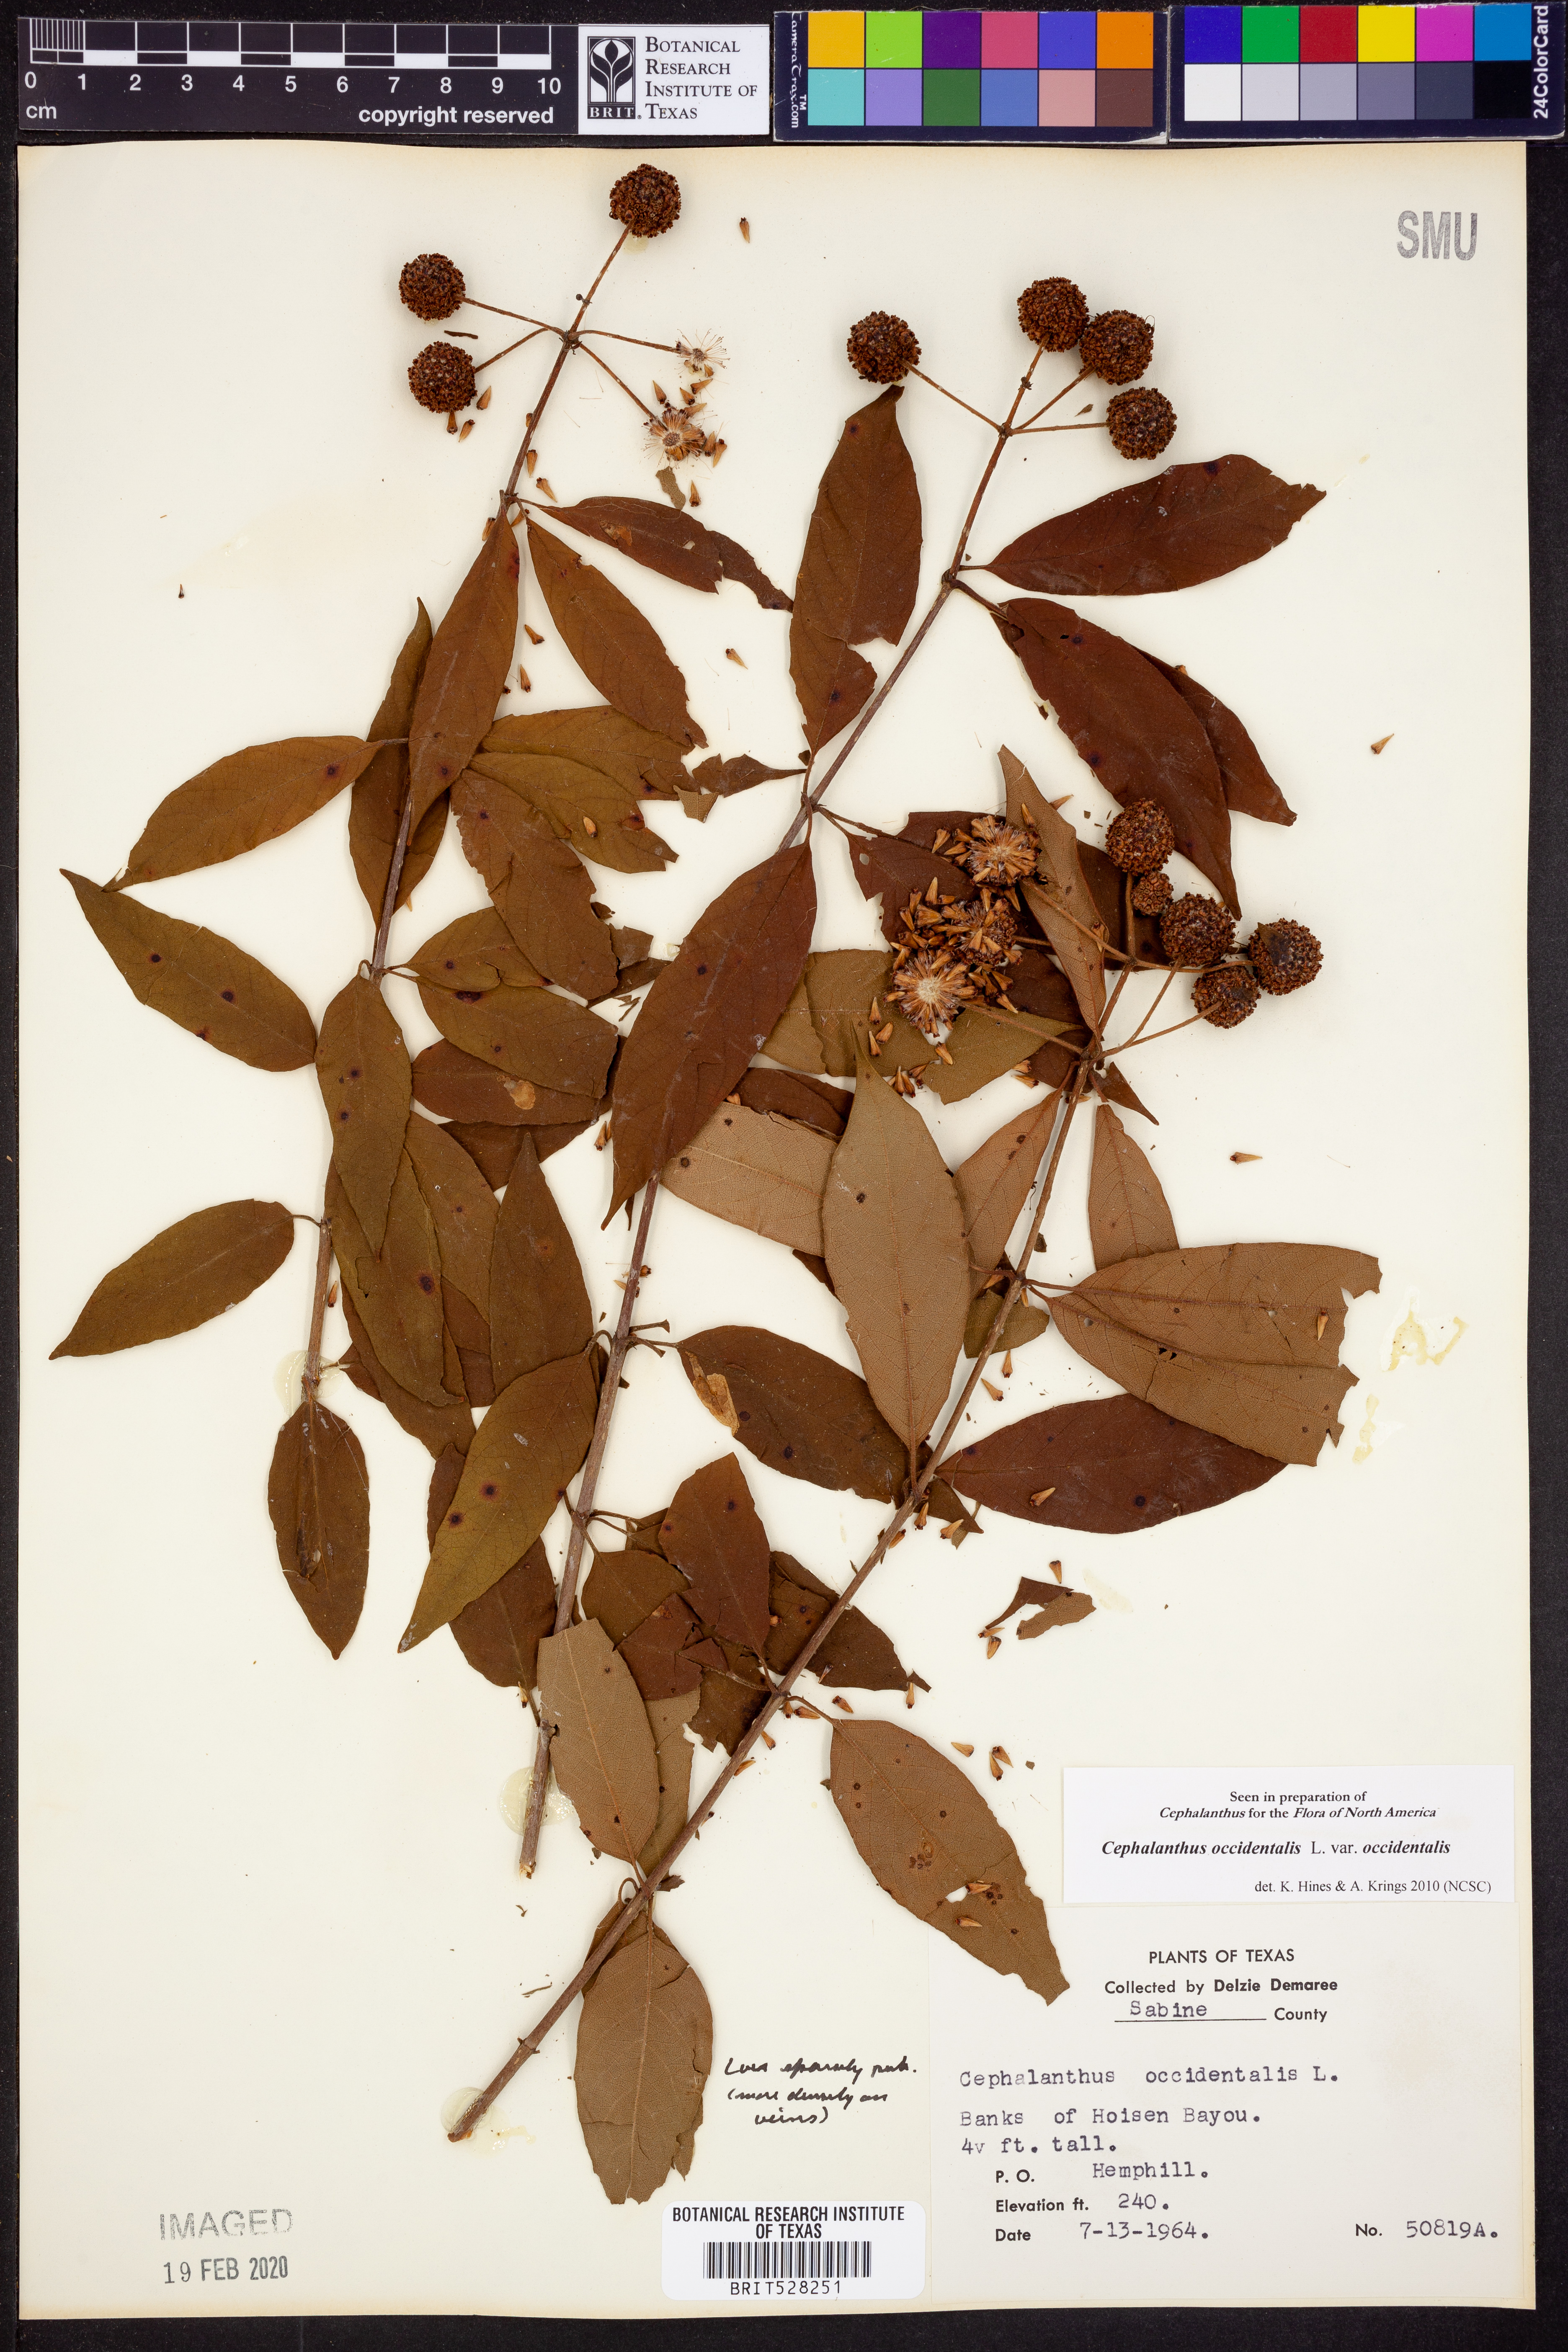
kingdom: Plantae
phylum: Tracheophyta
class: Magnoliopsida
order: Gentianales
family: Rubiaceae
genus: Cephalanthus
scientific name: Cephalanthus occidentalis
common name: Button-willow
